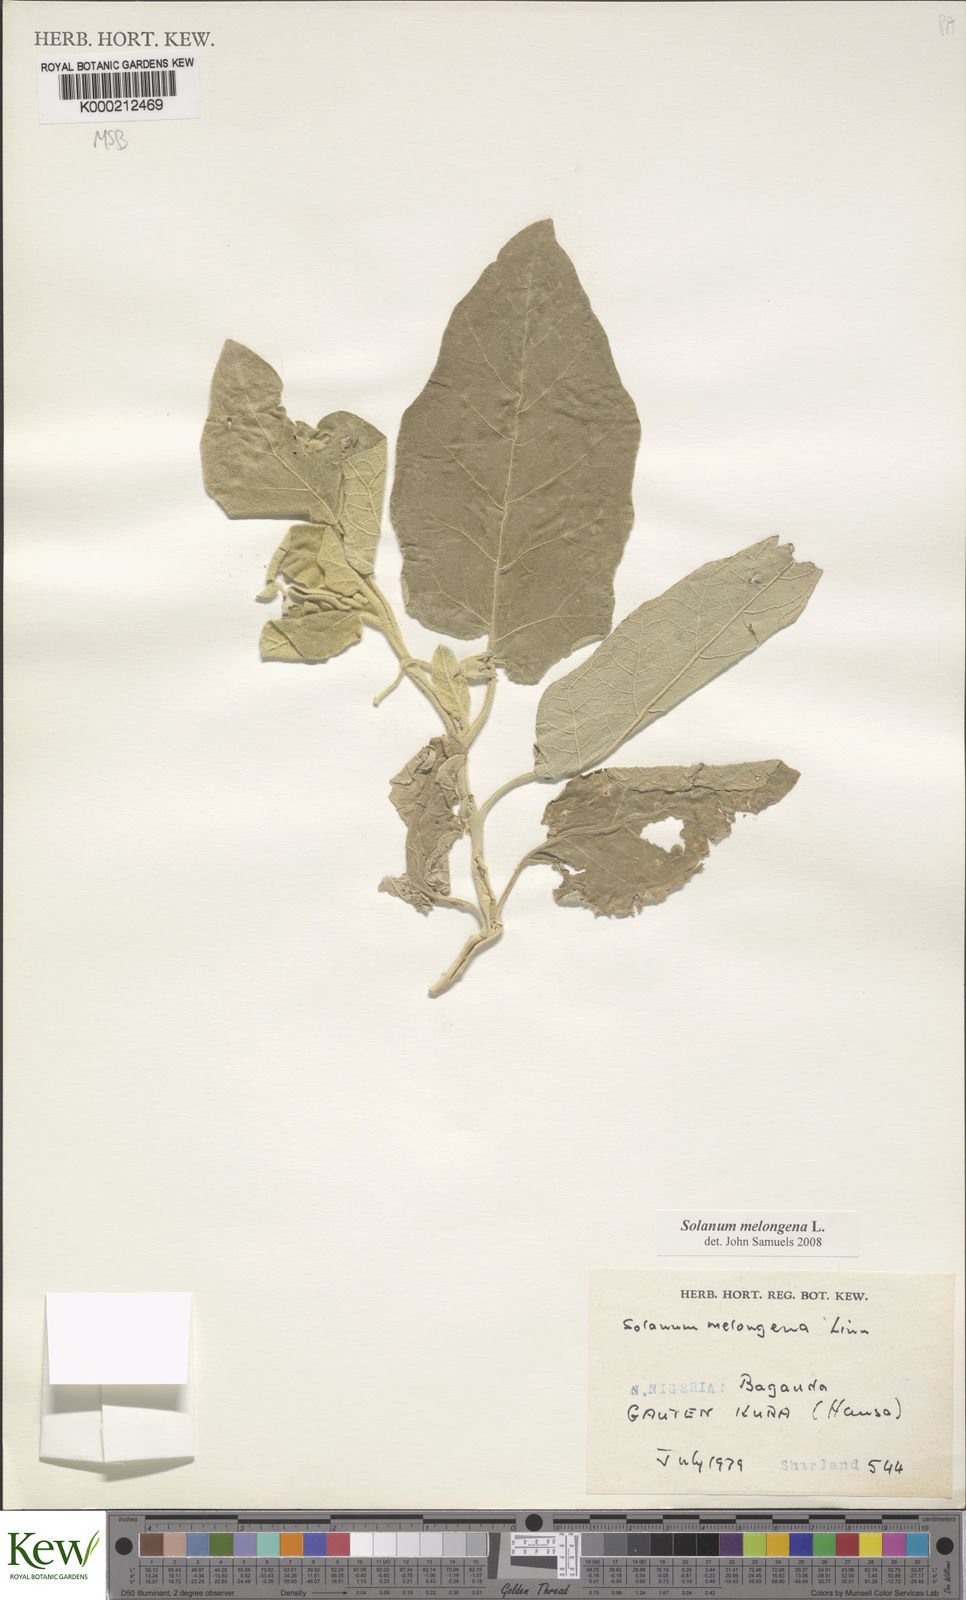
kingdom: Plantae
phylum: Tracheophyta
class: Magnoliopsida
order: Solanales
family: Solanaceae
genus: Solanum
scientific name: Solanum melongena
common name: Eggplant
